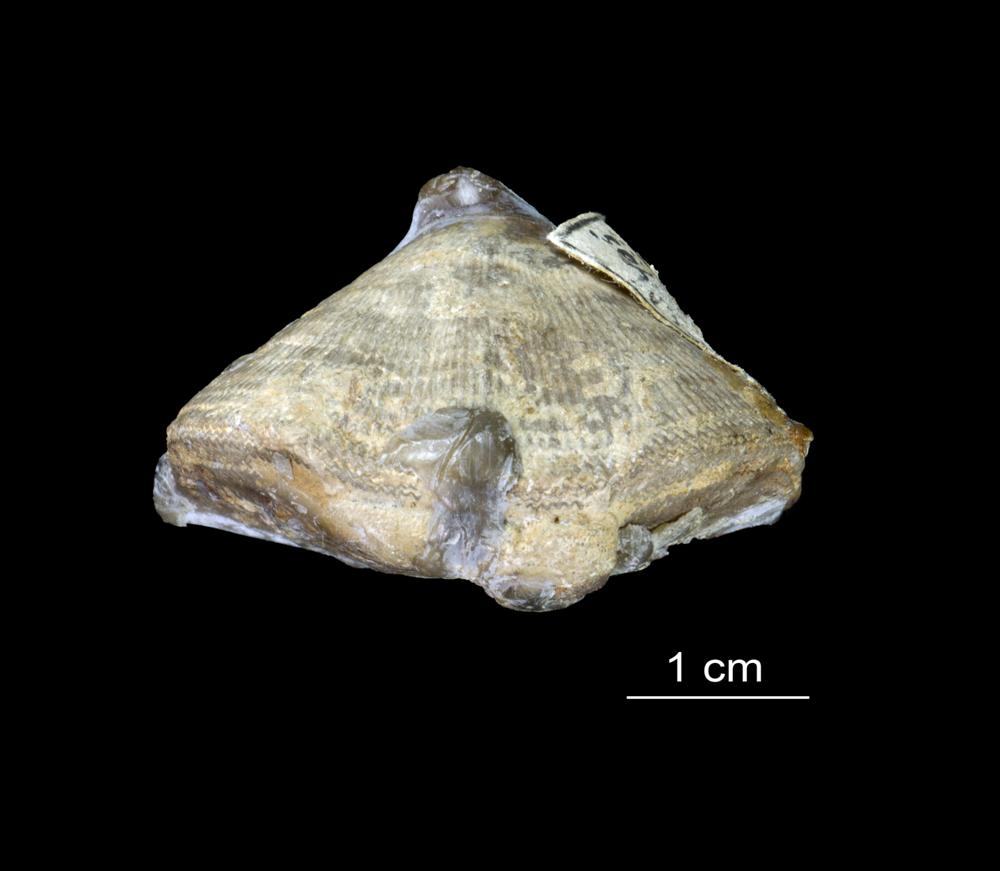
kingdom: Animalia
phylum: Brachiopoda
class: Rhynchonellata
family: Clitambonitidae
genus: Clinambon
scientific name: Clinambon anomalus
